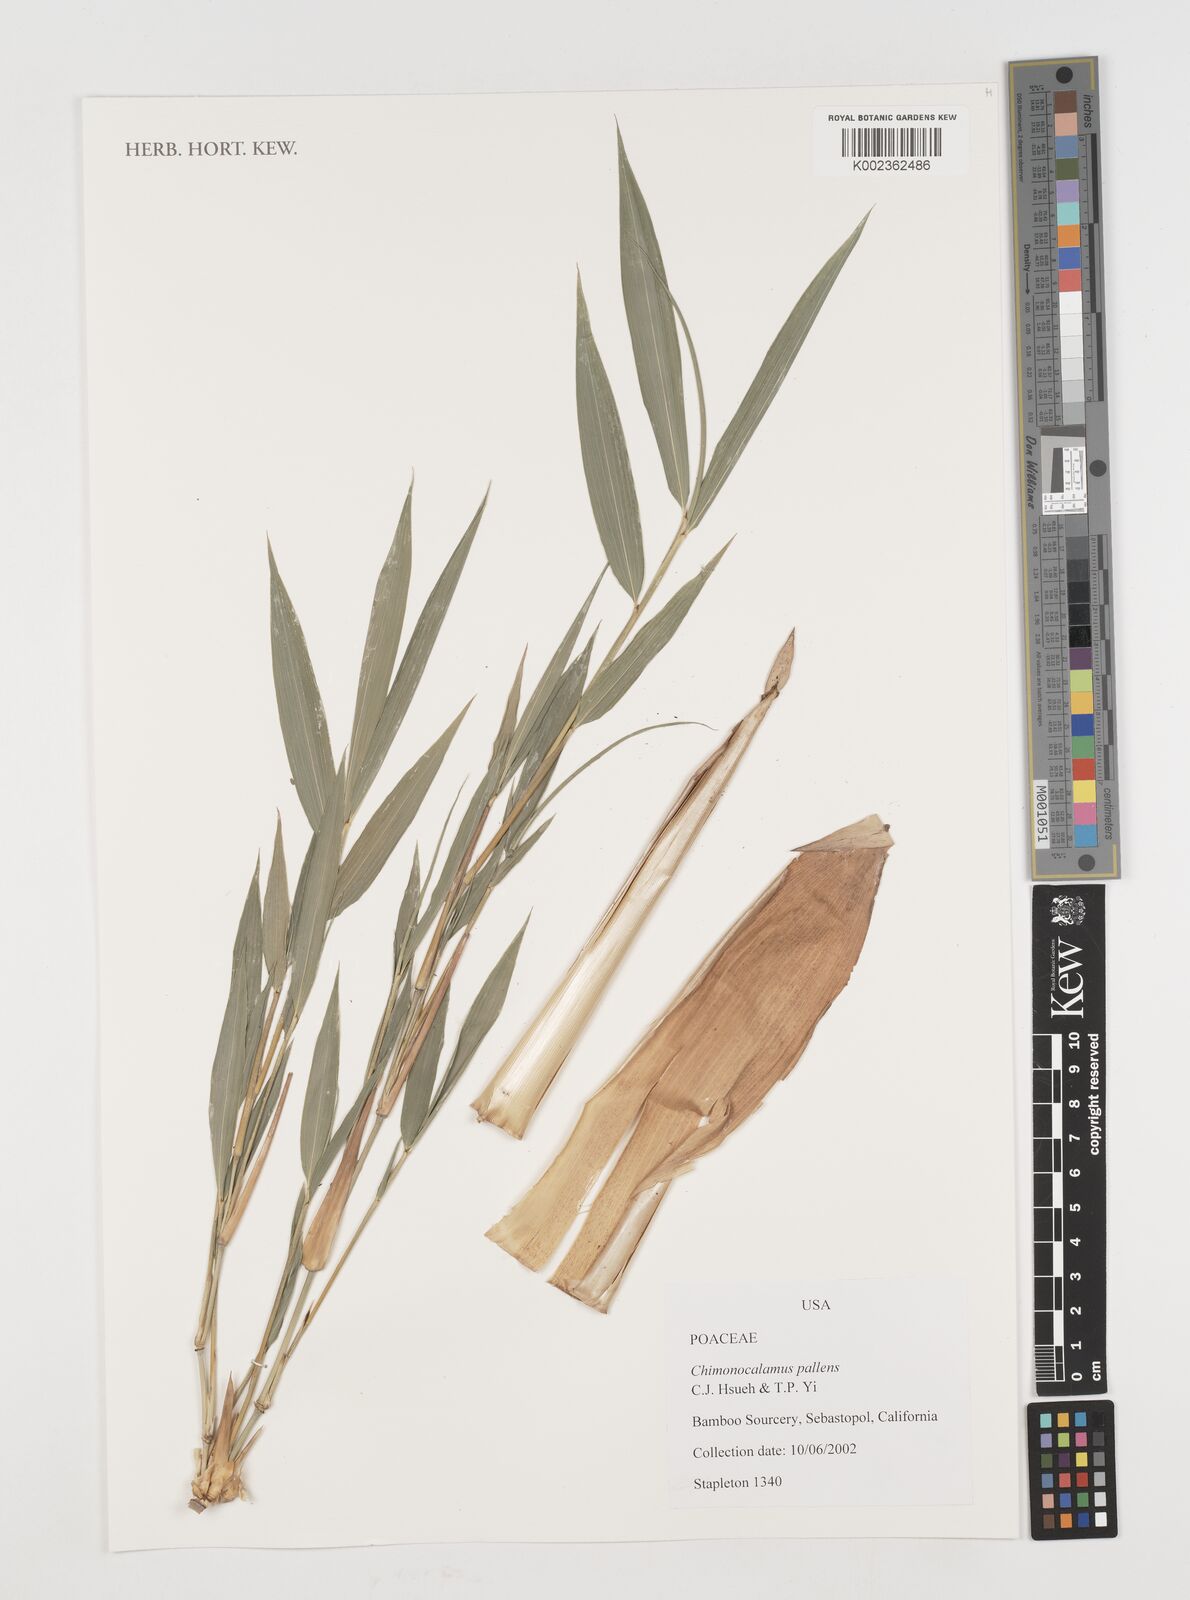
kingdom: Plantae
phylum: Tracheophyta
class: Liliopsida
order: Poales
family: Poaceae
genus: Chimonocalamus
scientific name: Chimonocalamus pallens
